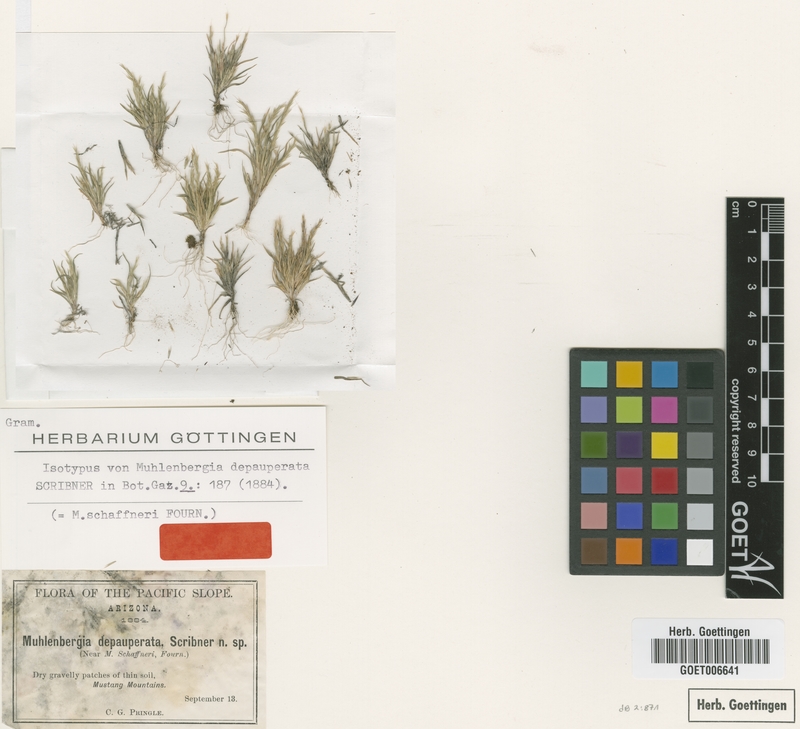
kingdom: Plantae
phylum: Tracheophyta
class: Liliopsida
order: Poales
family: Poaceae
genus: Muhlenbergia
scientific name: Muhlenbergia depauperata
